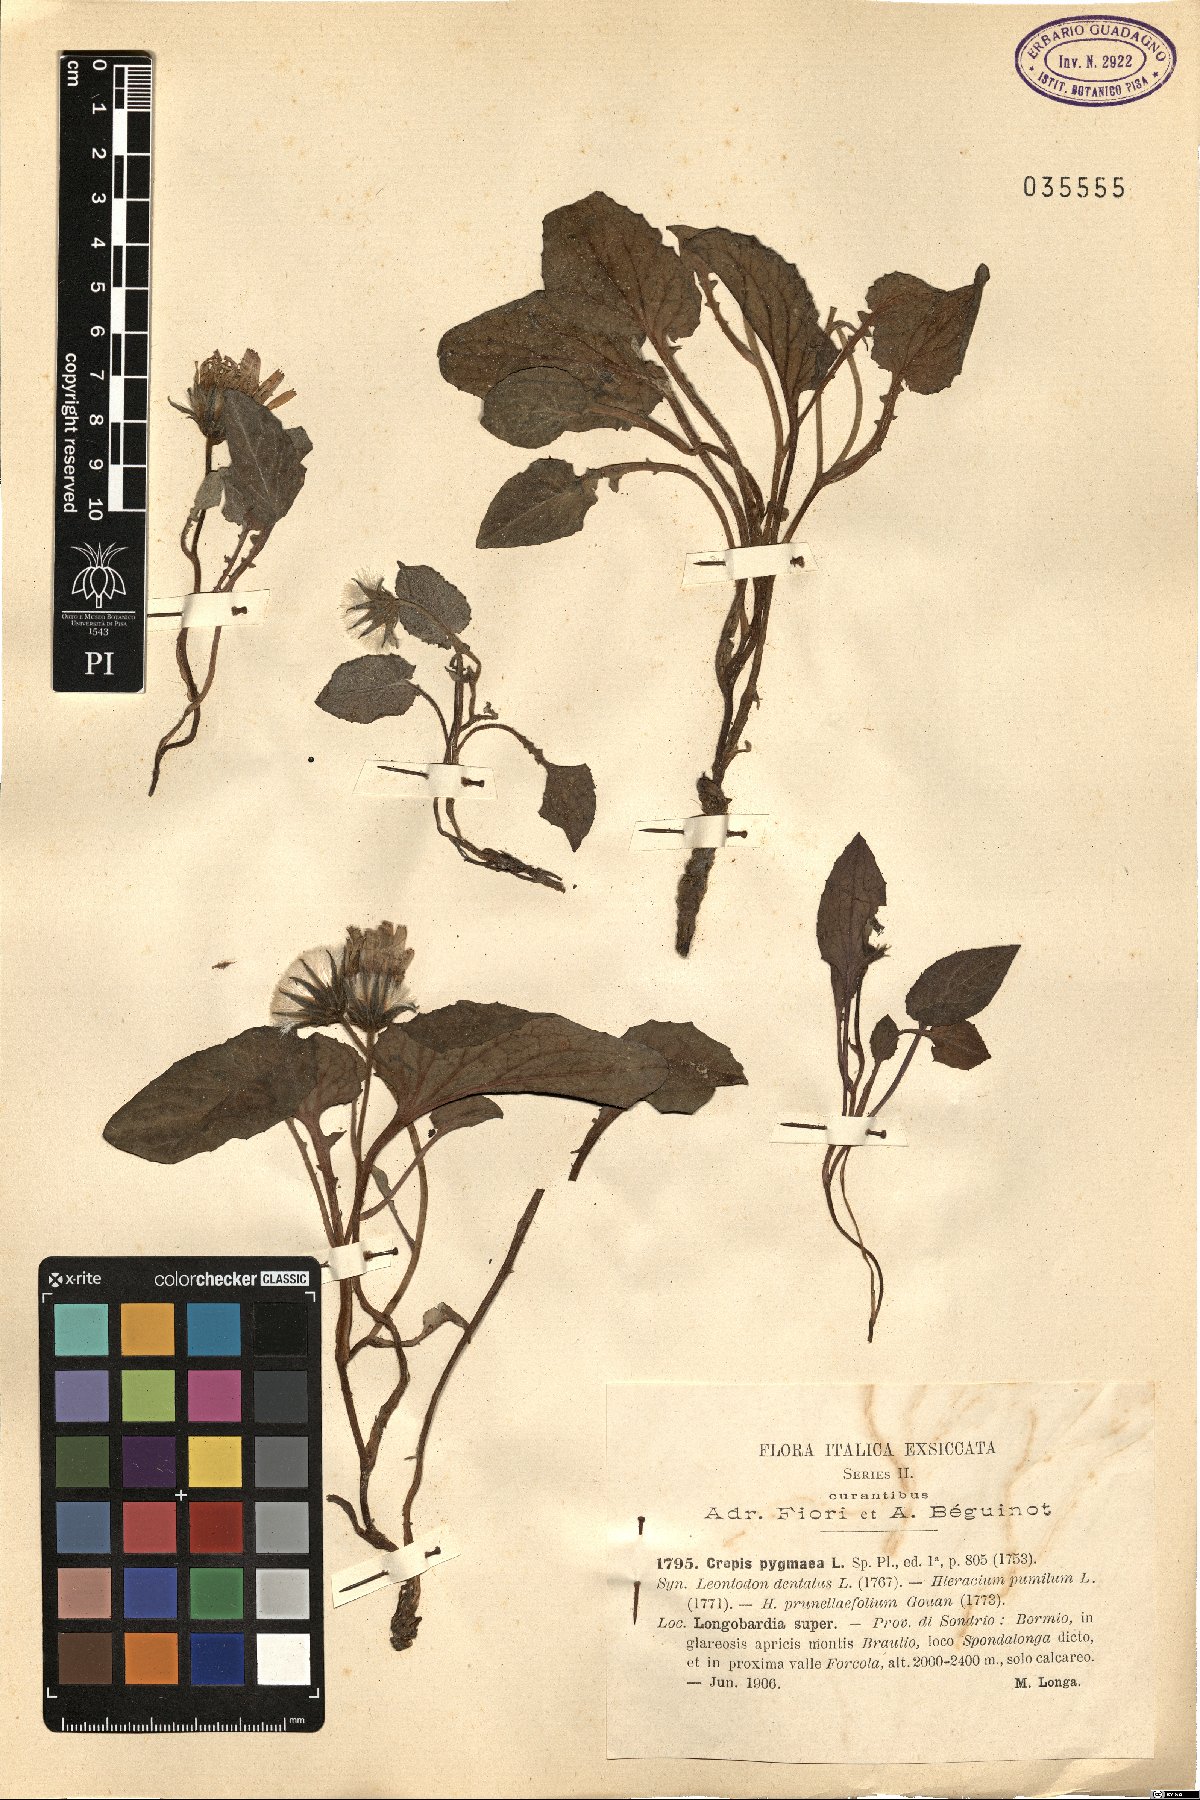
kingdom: Plantae
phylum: Tracheophyta
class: Magnoliopsida
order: Asterales
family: Asteraceae
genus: Crepis
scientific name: Crepis pygmaea
